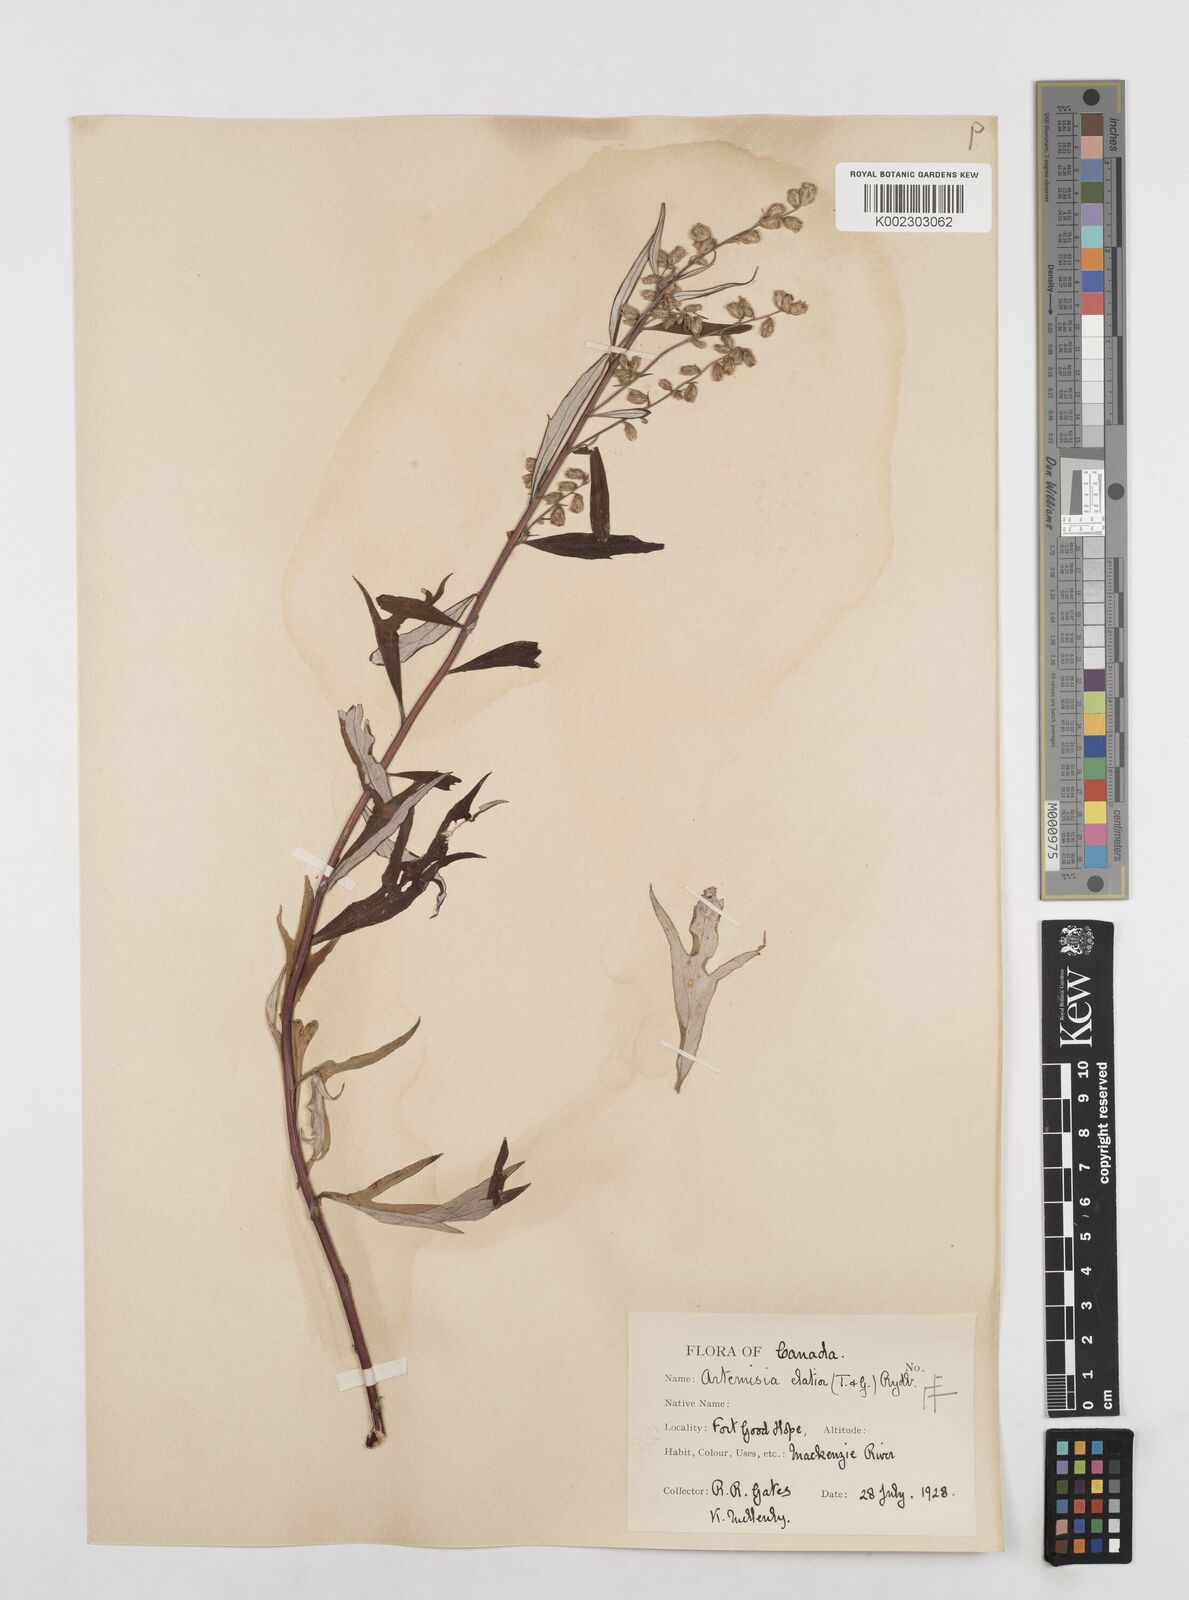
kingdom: Plantae
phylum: Tracheophyta
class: Magnoliopsida
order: Asterales
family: Asteraceae
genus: Artemisia
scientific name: Artemisia tilesii
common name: Aleutian mugwort
